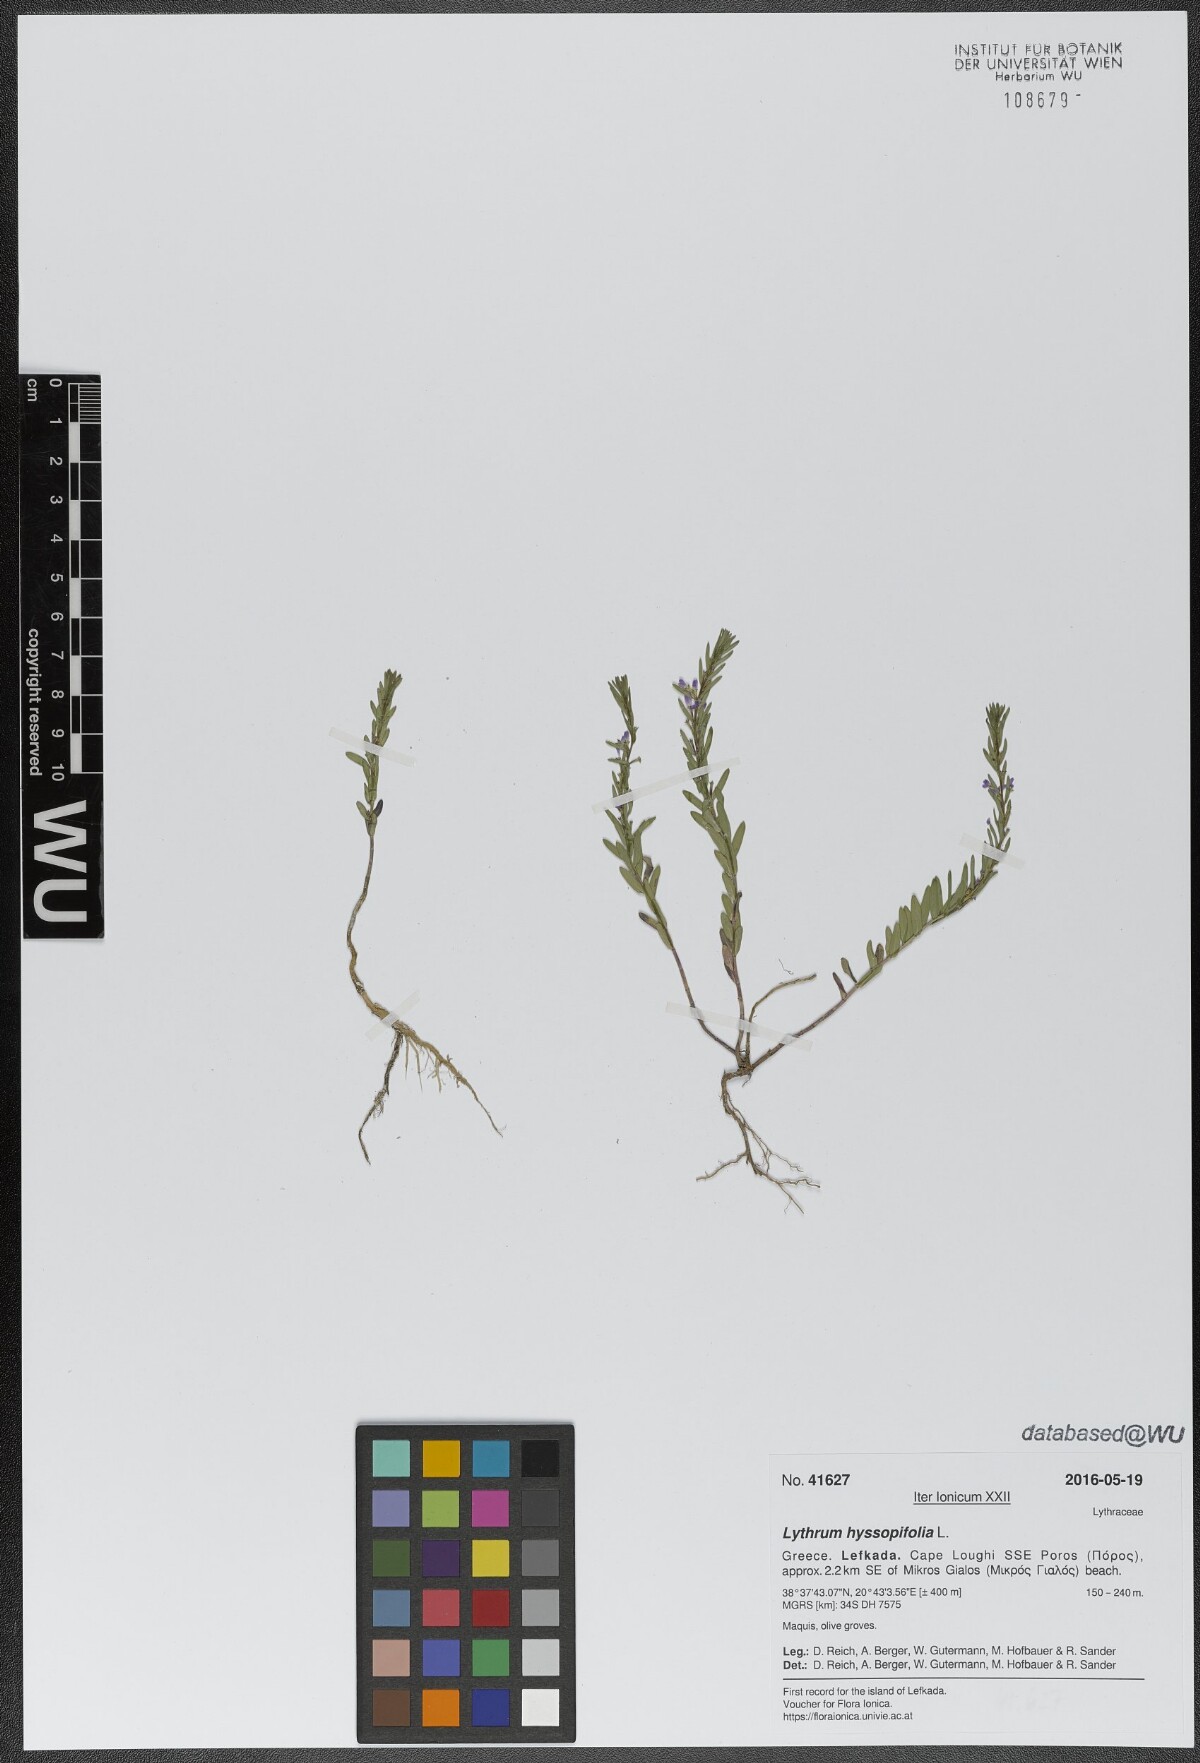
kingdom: Plantae
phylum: Tracheophyta
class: Magnoliopsida
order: Myrtales
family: Lythraceae
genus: Lythrum
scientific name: Lythrum hyssopifolia
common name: Grass-poly
